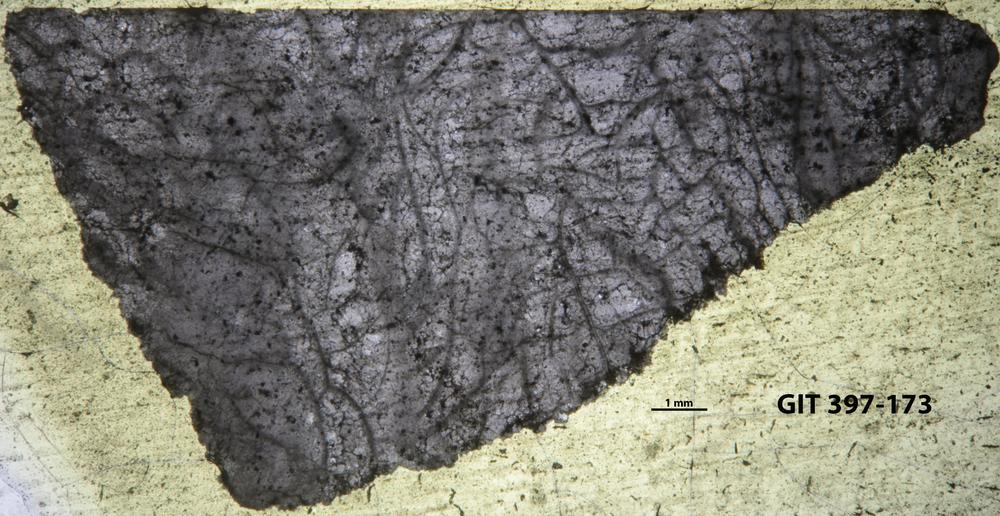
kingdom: Animalia
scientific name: Animalia
